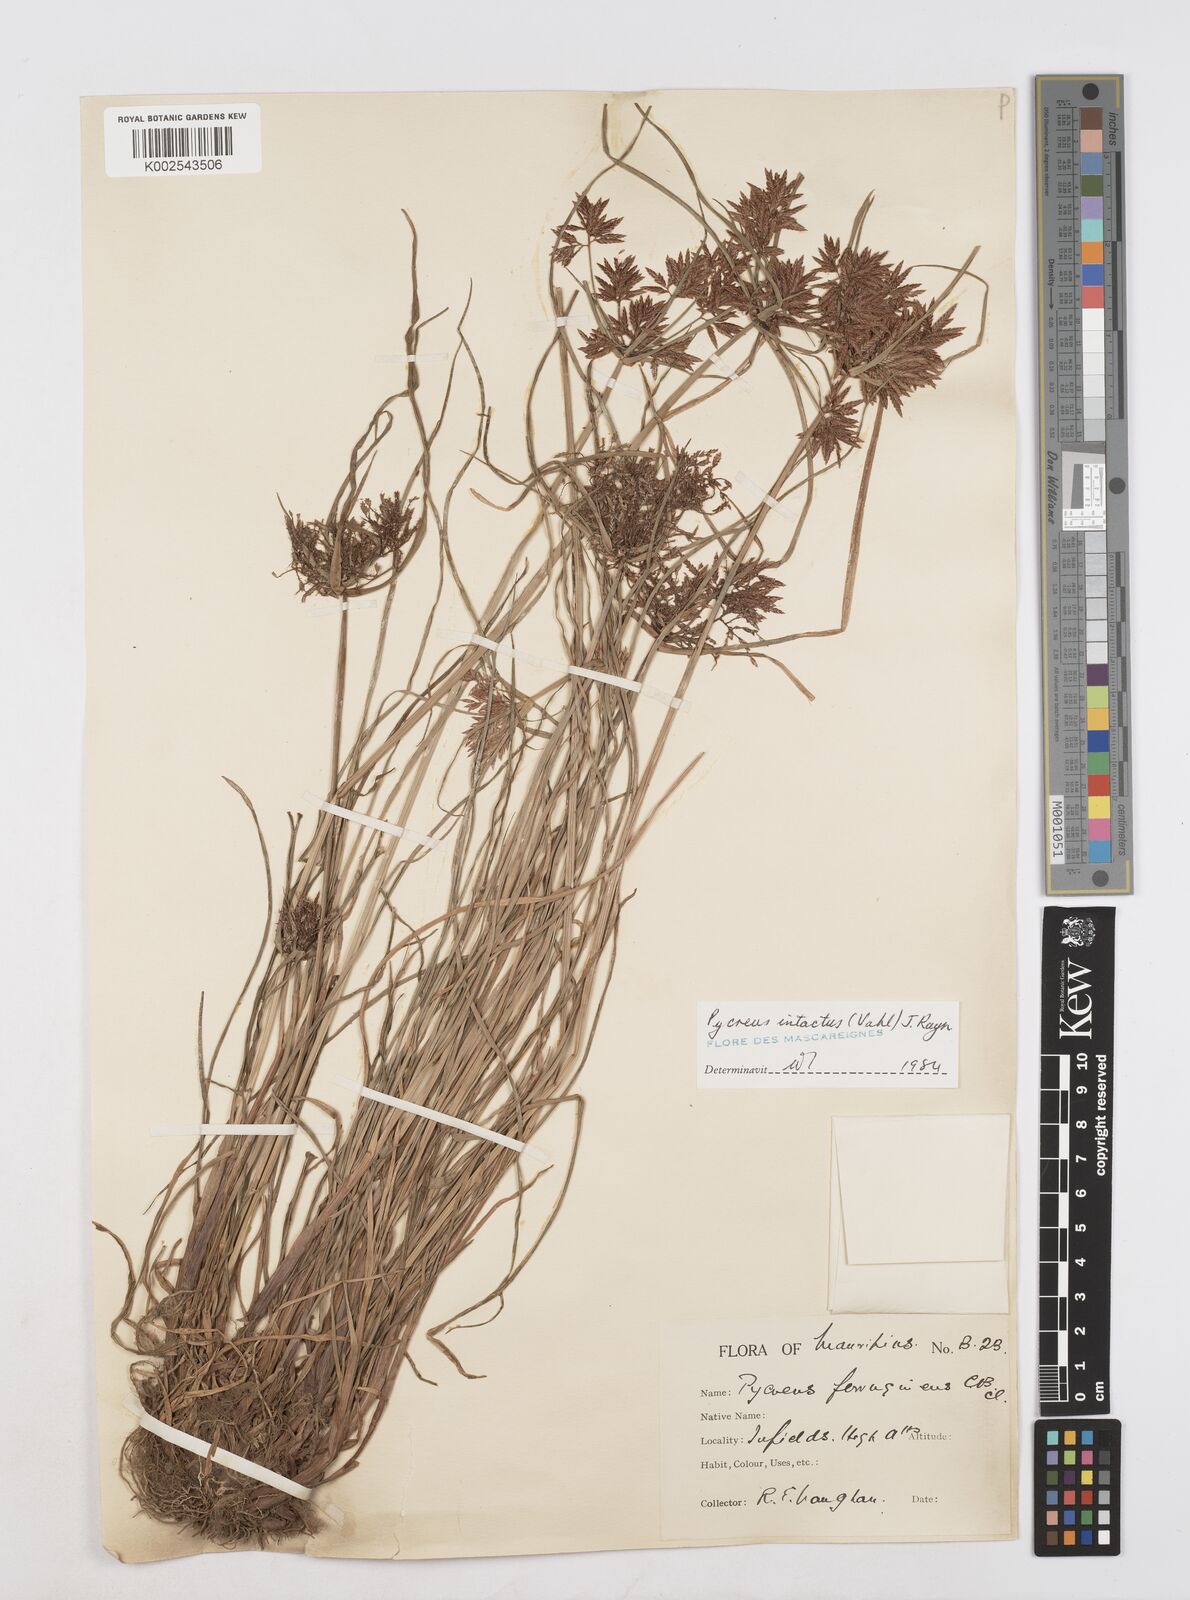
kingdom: Plantae
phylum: Tracheophyta
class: Liliopsida
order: Poales
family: Cyperaceae
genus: Cyperus
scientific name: Cyperus intactus
